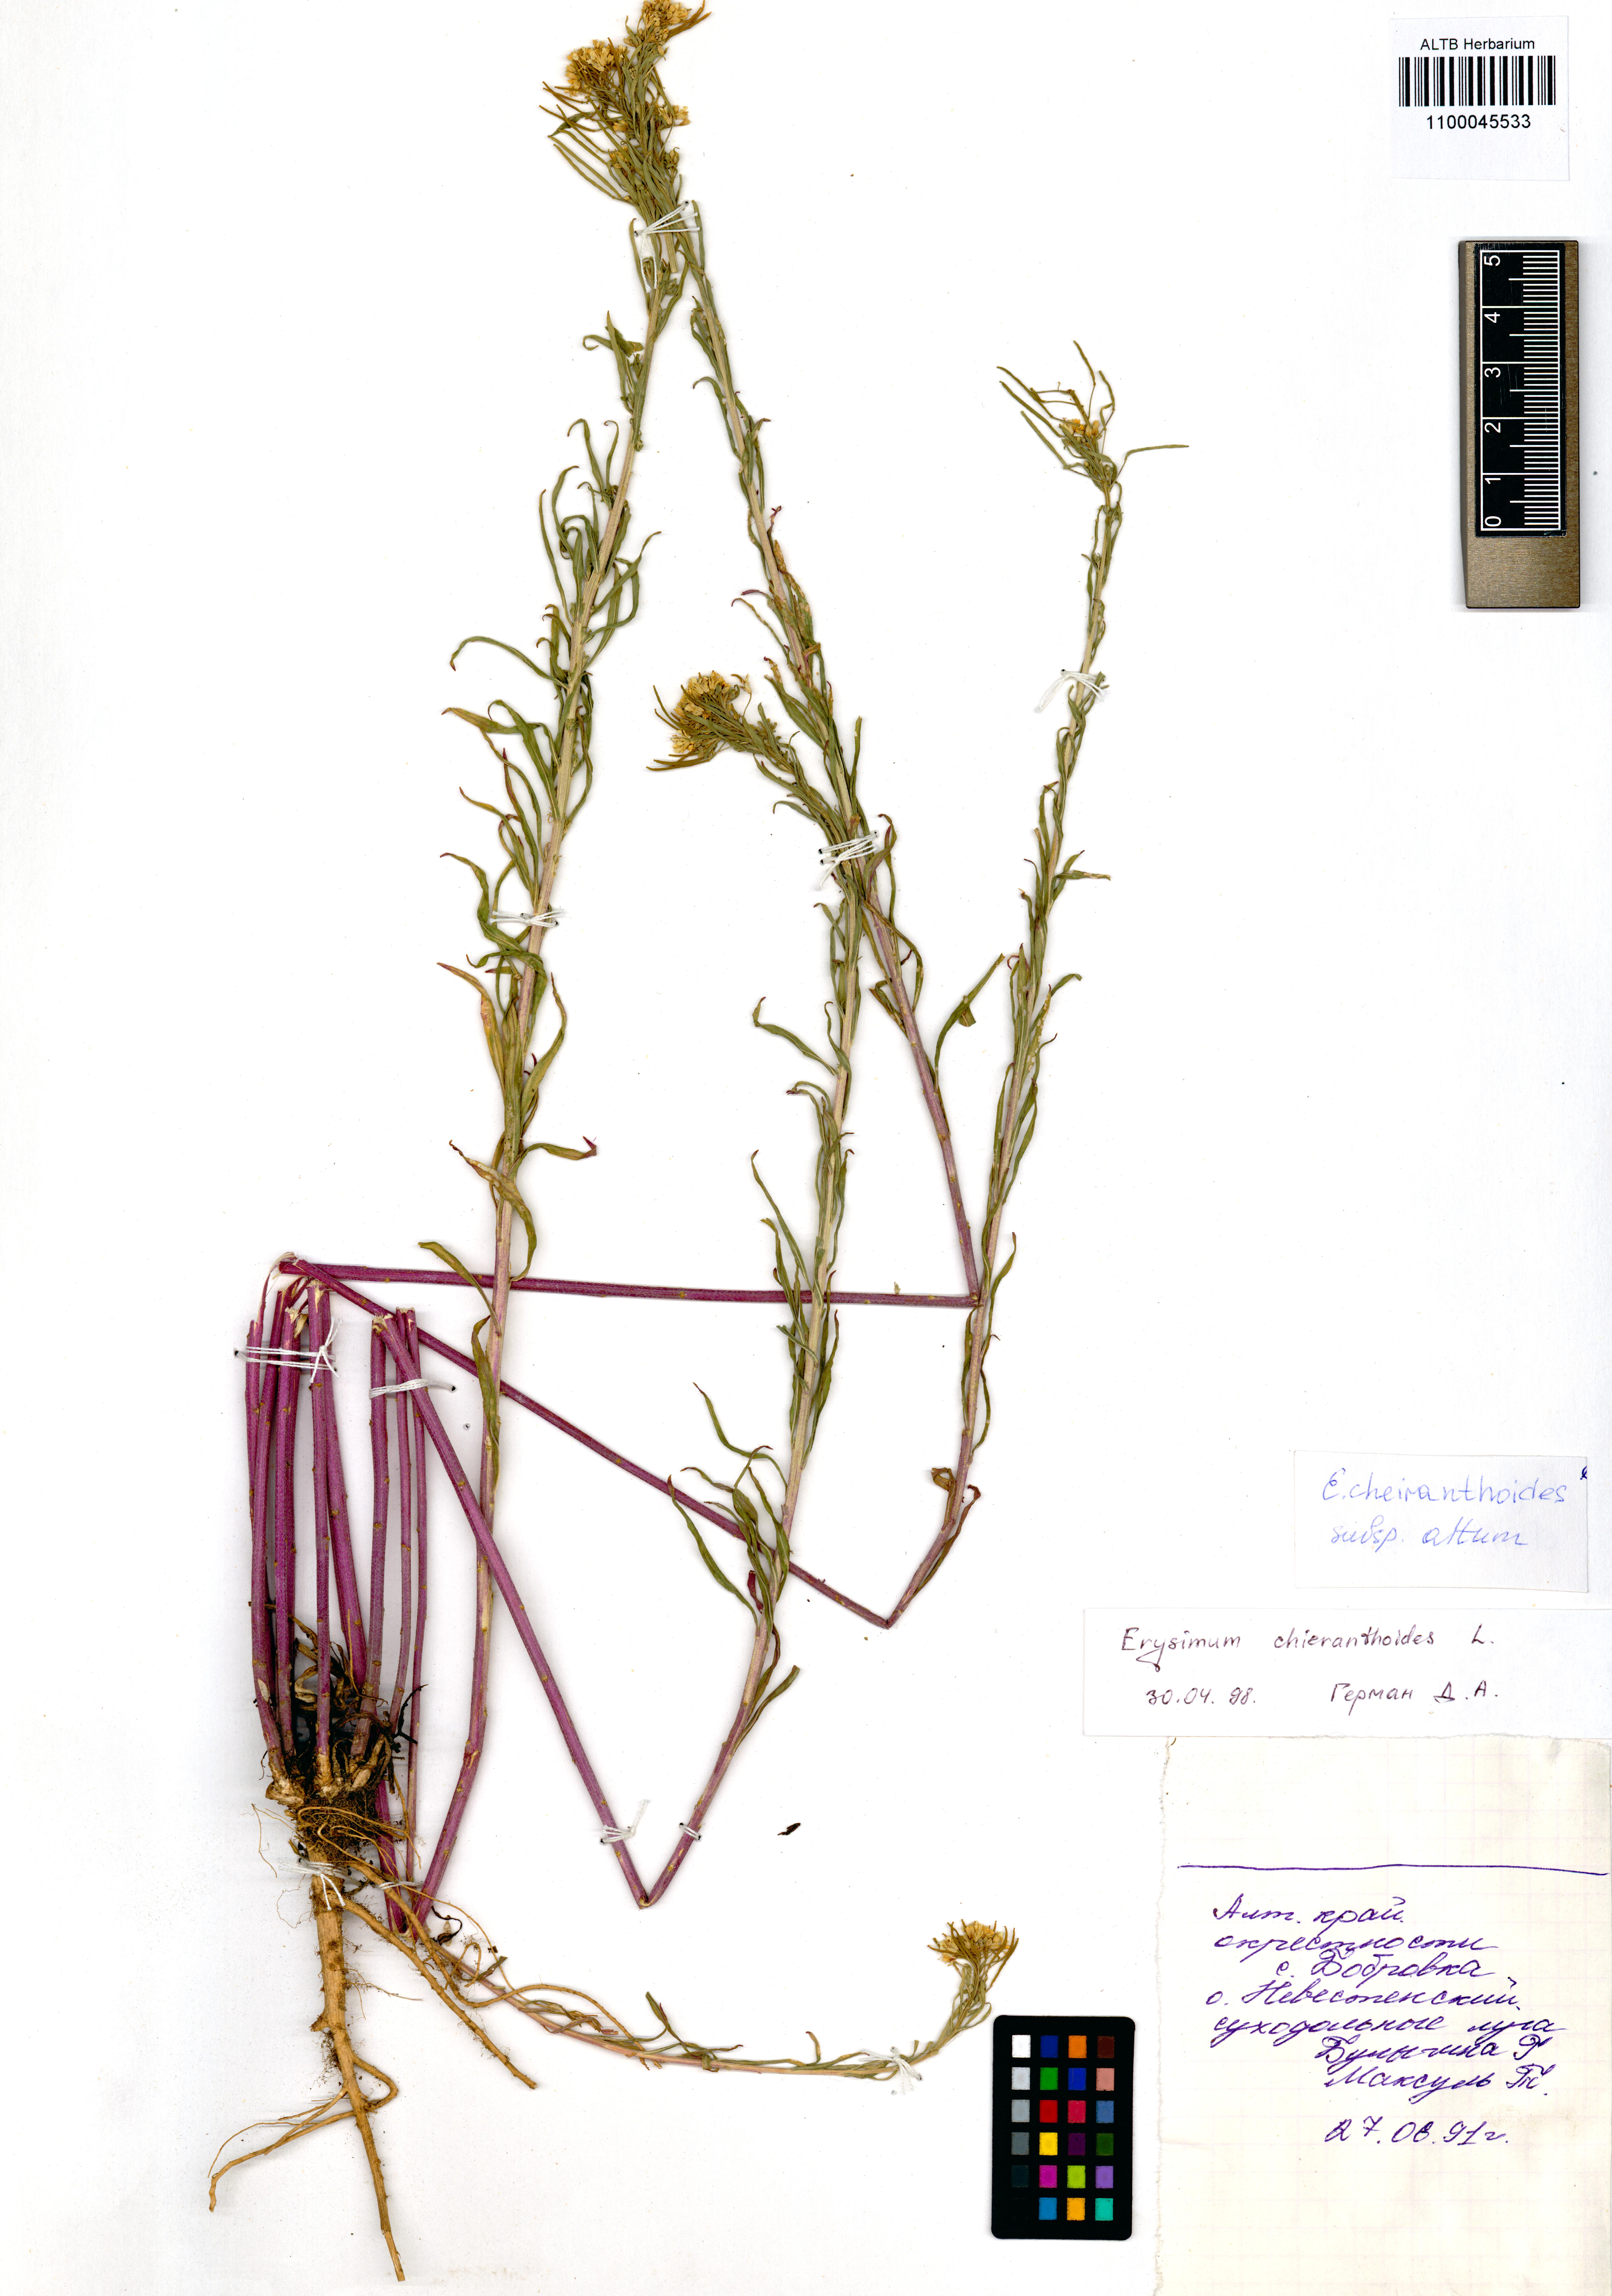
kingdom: Plantae
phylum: Tracheophyta
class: Magnoliopsida
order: Brassicales
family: Brassicaceae
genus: Erysimum
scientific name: Erysimum cheiranthoides
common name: Treacle mustard
